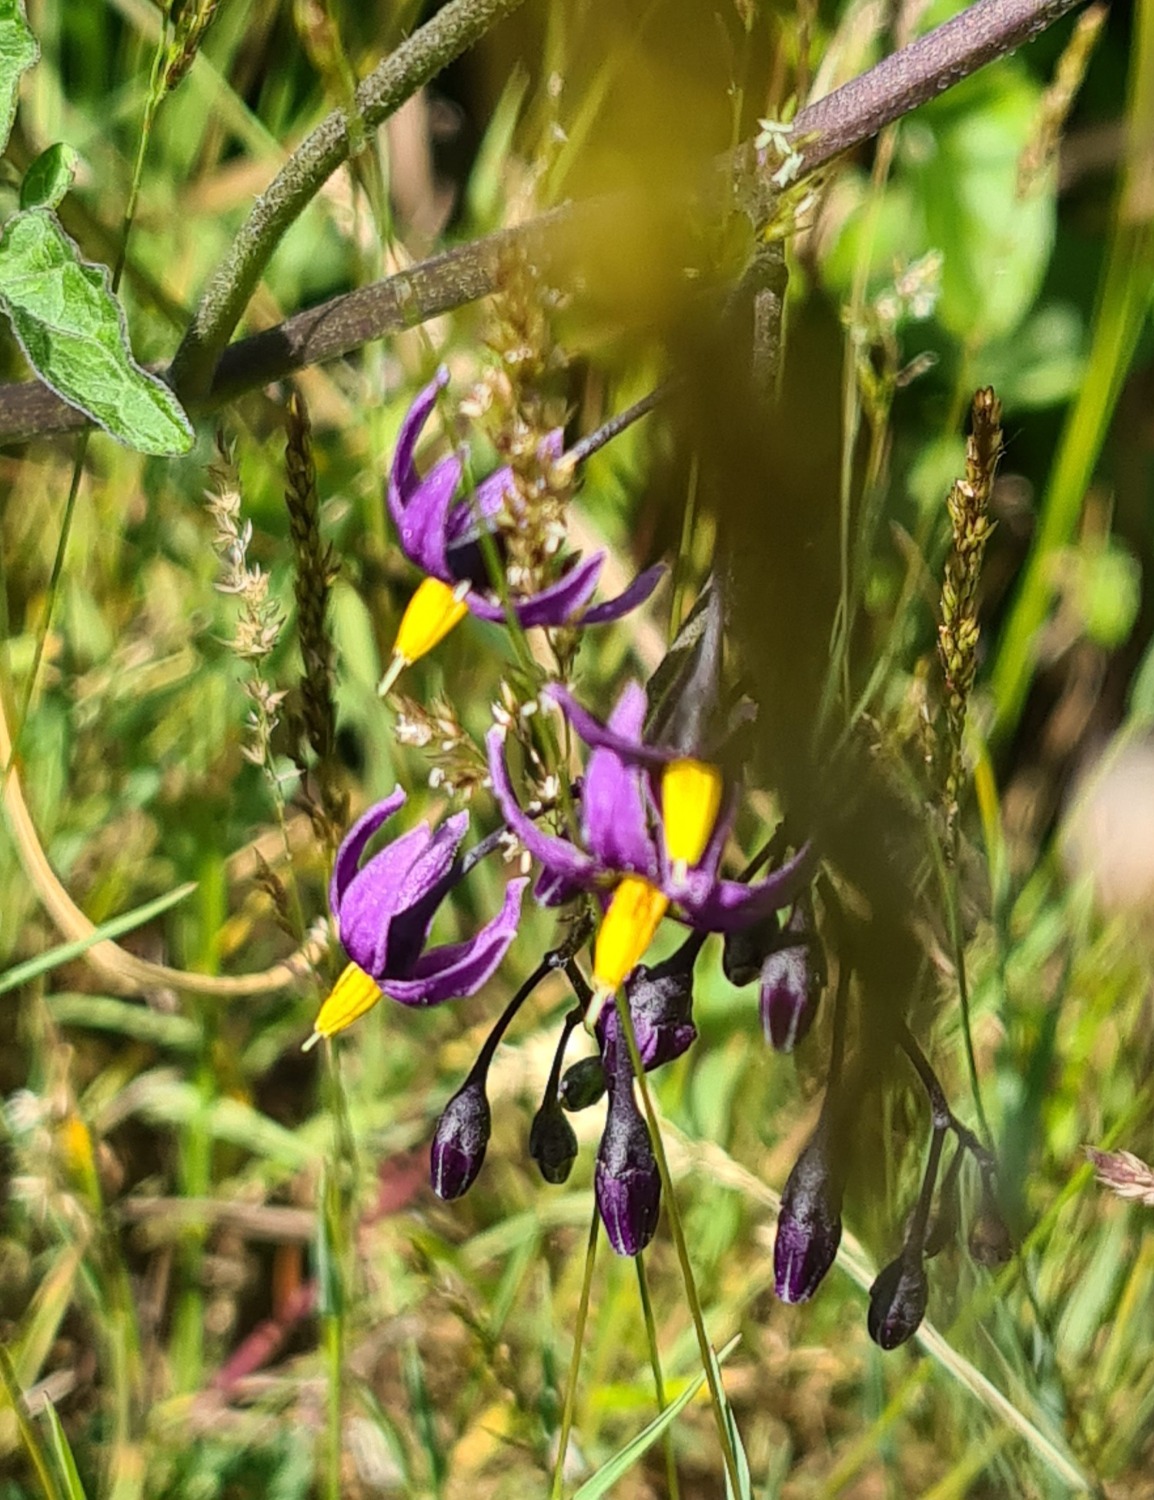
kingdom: Plantae
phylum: Tracheophyta
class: Magnoliopsida
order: Solanales
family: Solanaceae
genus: Solanum
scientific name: Solanum dulcamara
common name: Bittersød natskygge
